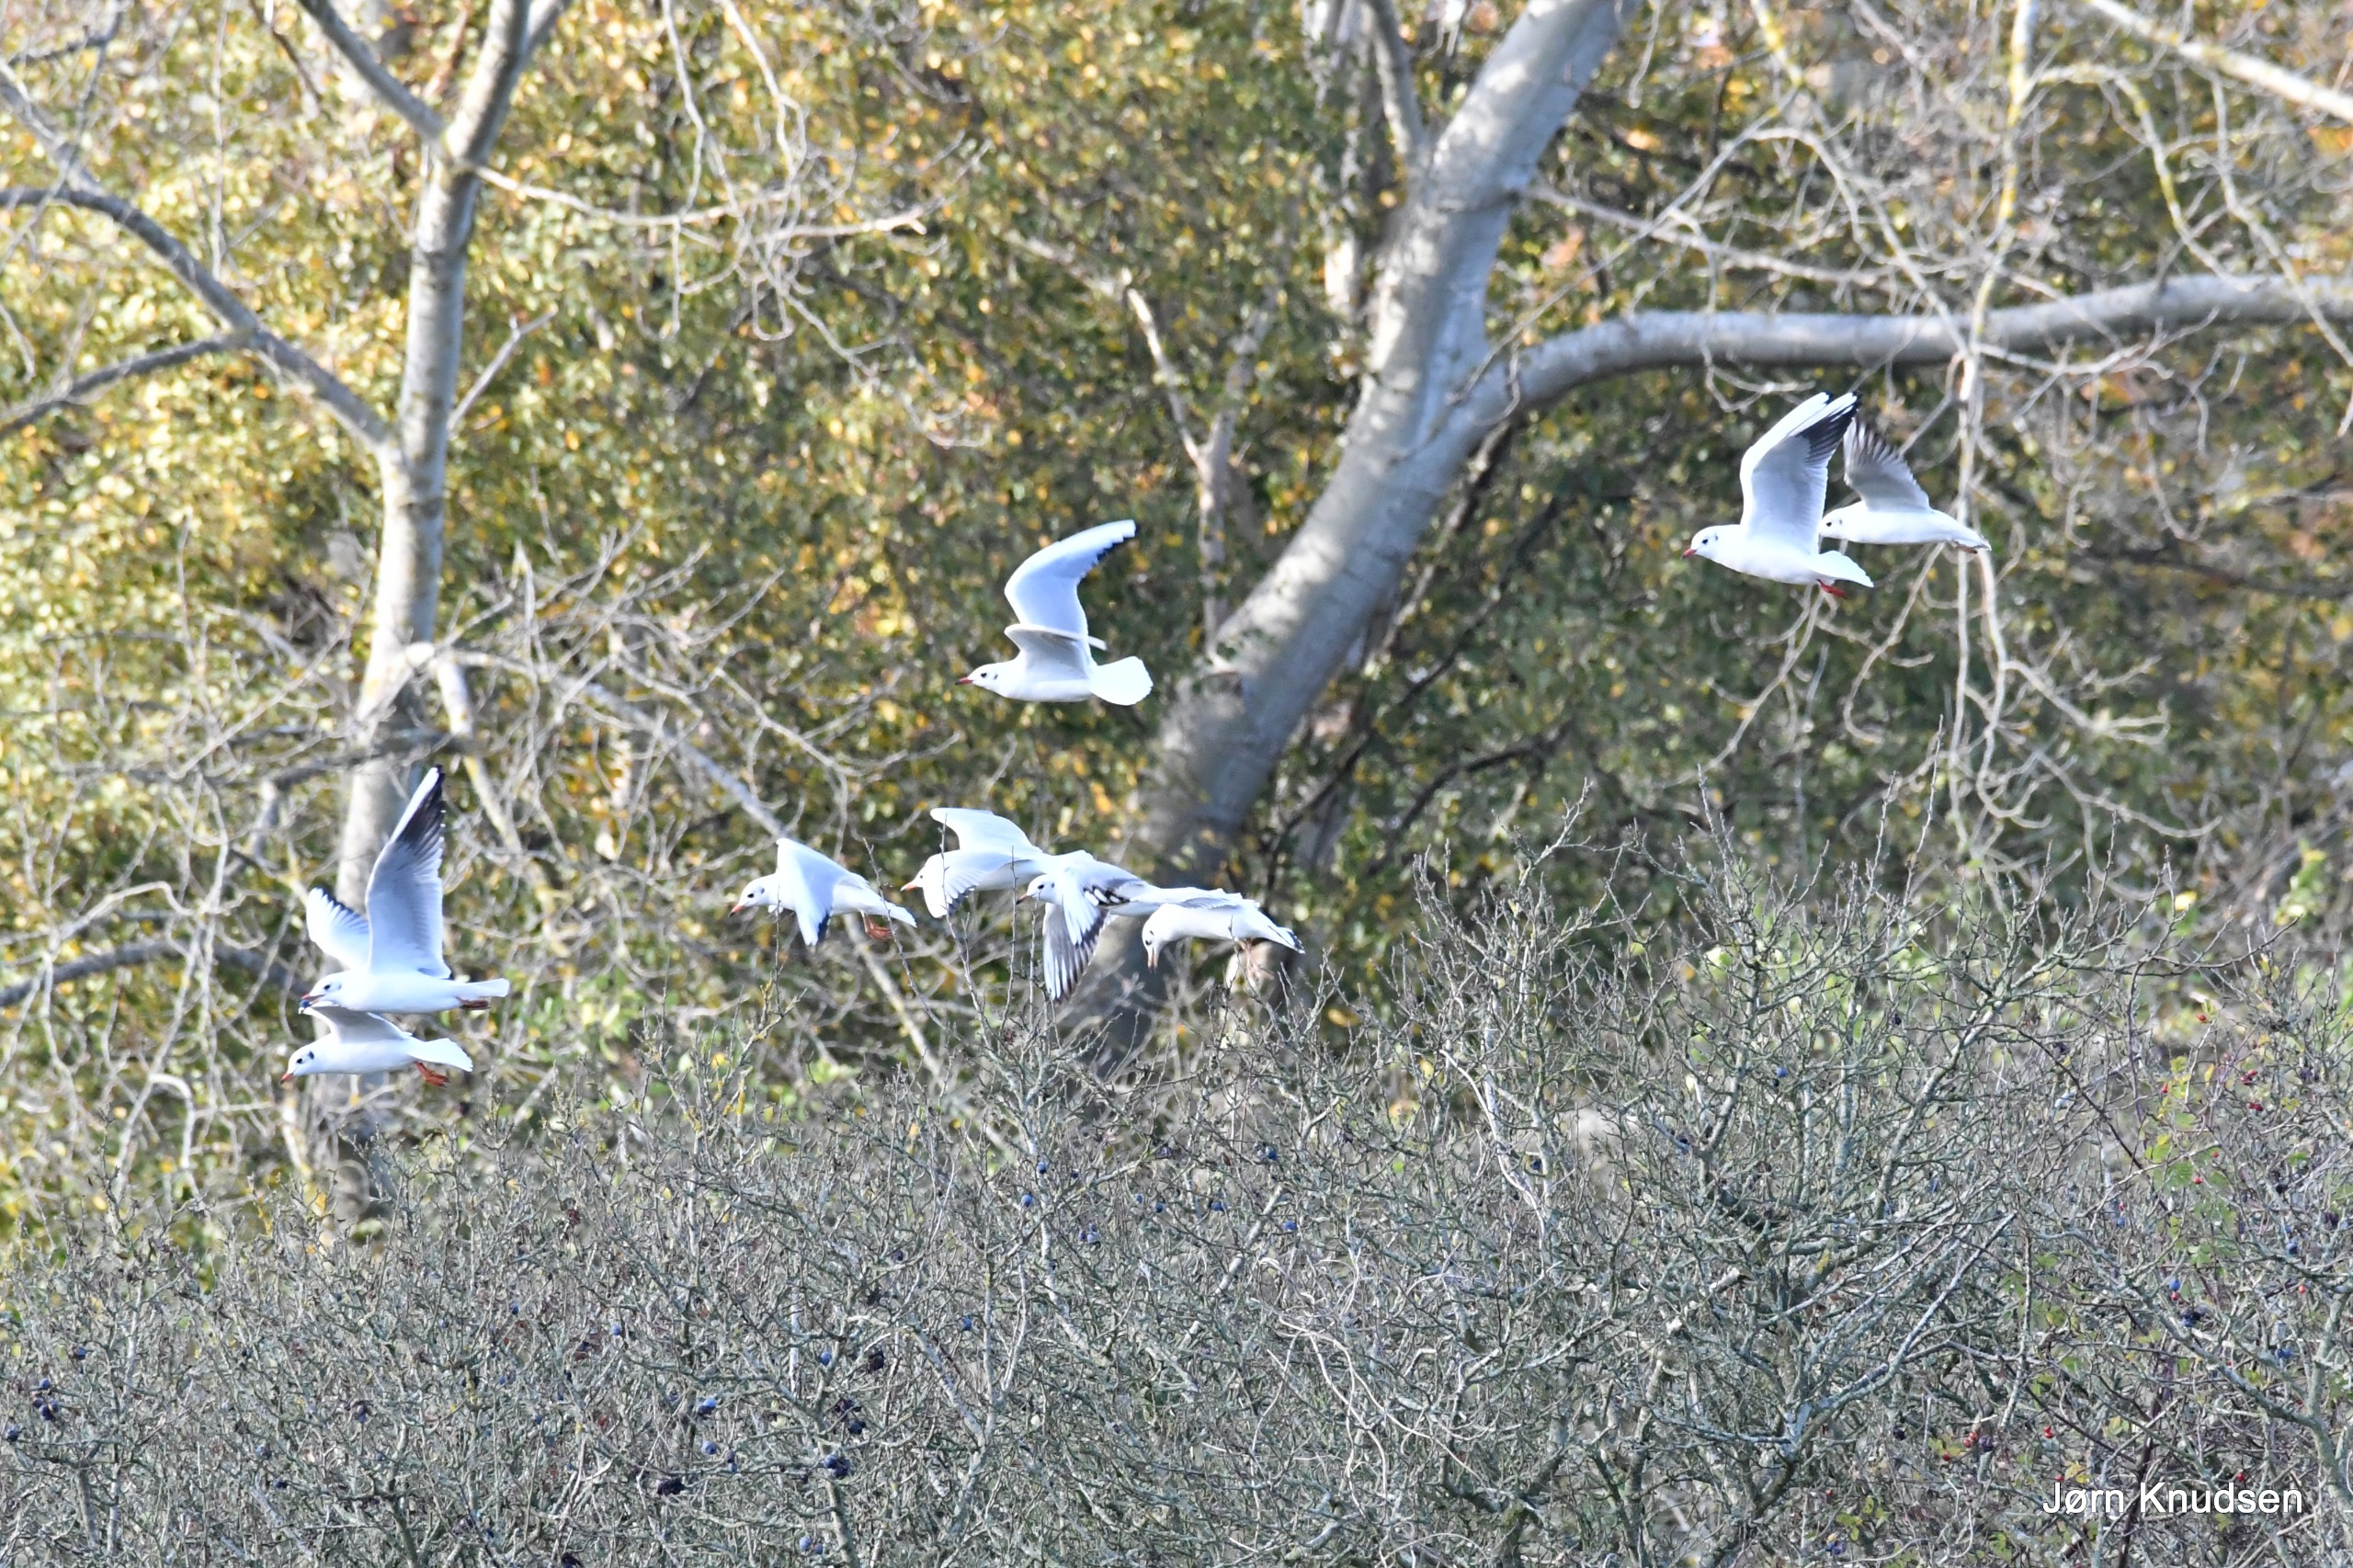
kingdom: Animalia
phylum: Chordata
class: Aves
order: Charadriiformes
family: Laridae
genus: Chroicocephalus
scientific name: Chroicocephalus ridibundus
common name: Hættemåge
